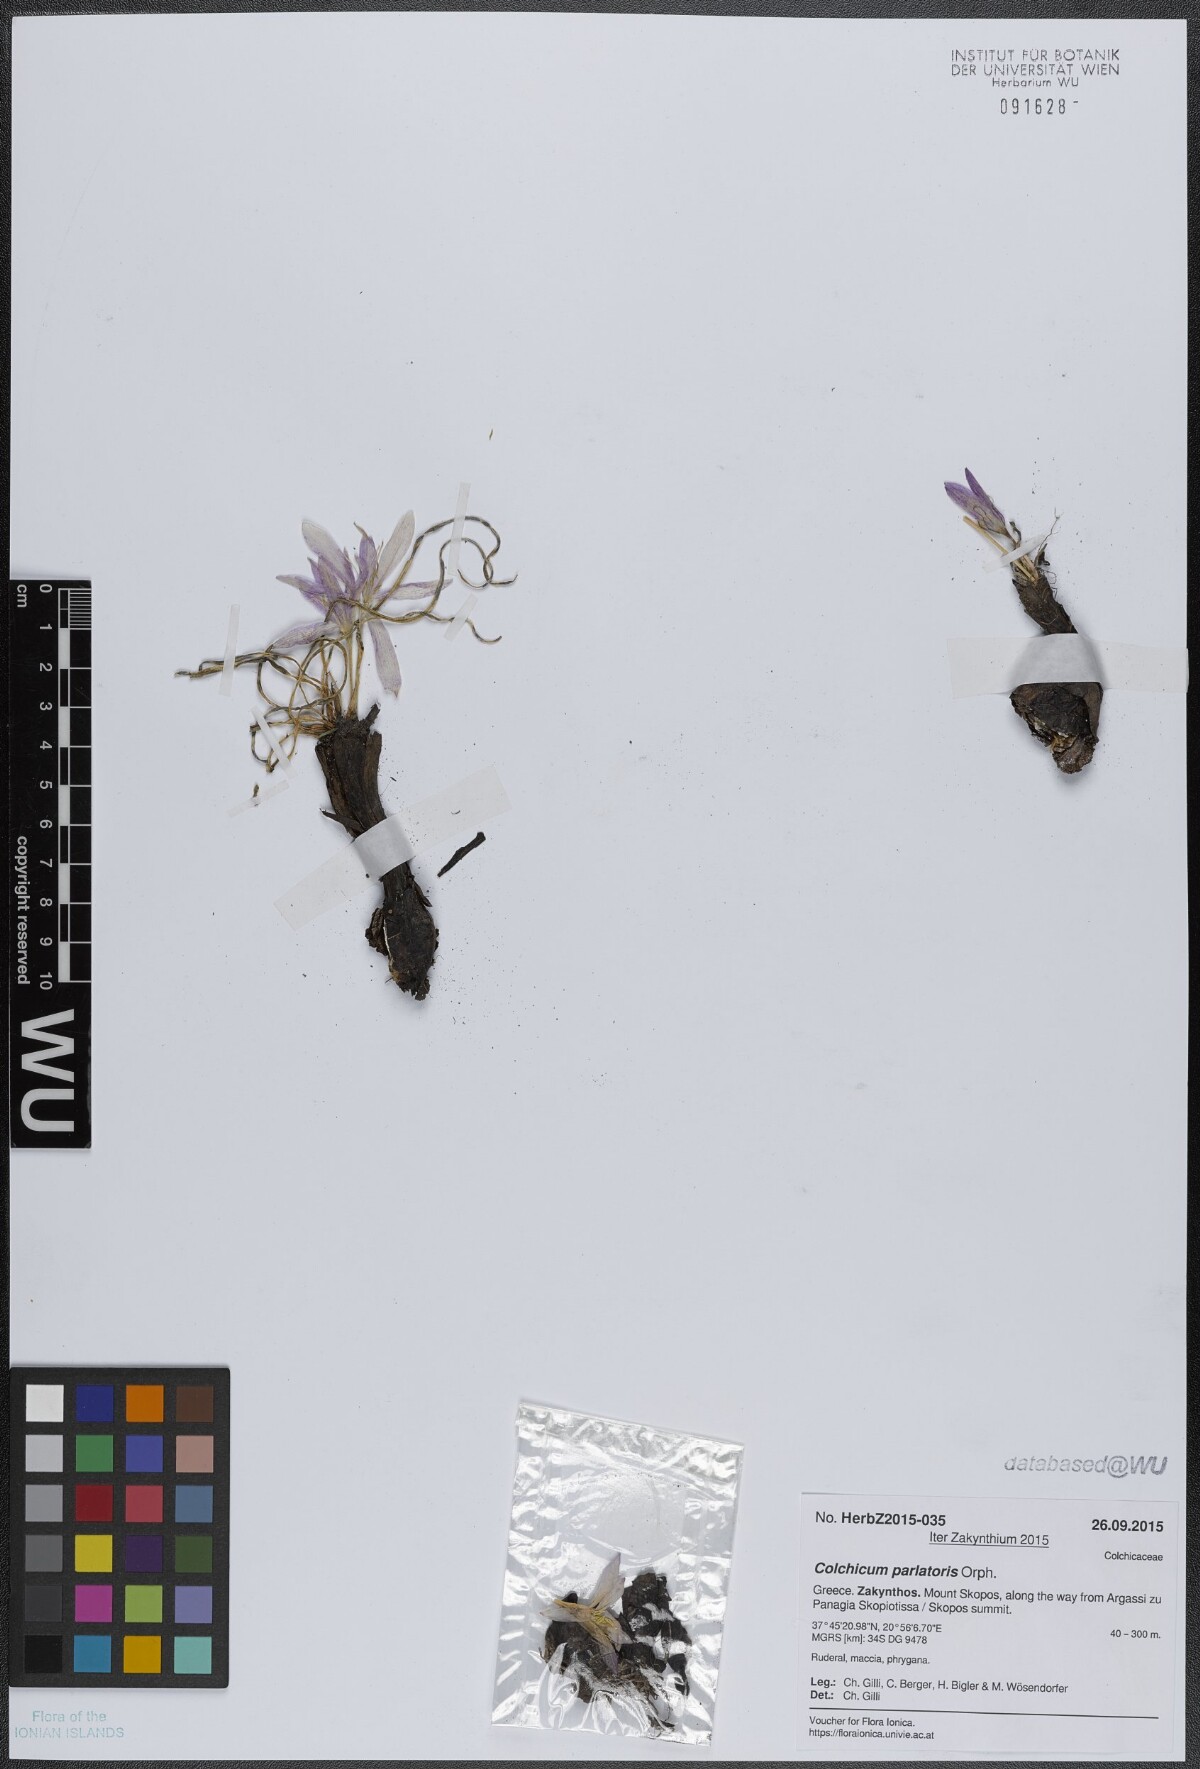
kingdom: Plantae
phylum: Tracheophyta
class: Liliopsida
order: Liliales
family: Colchicaceae
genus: Colchicum
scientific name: Colchicum parlatoris
